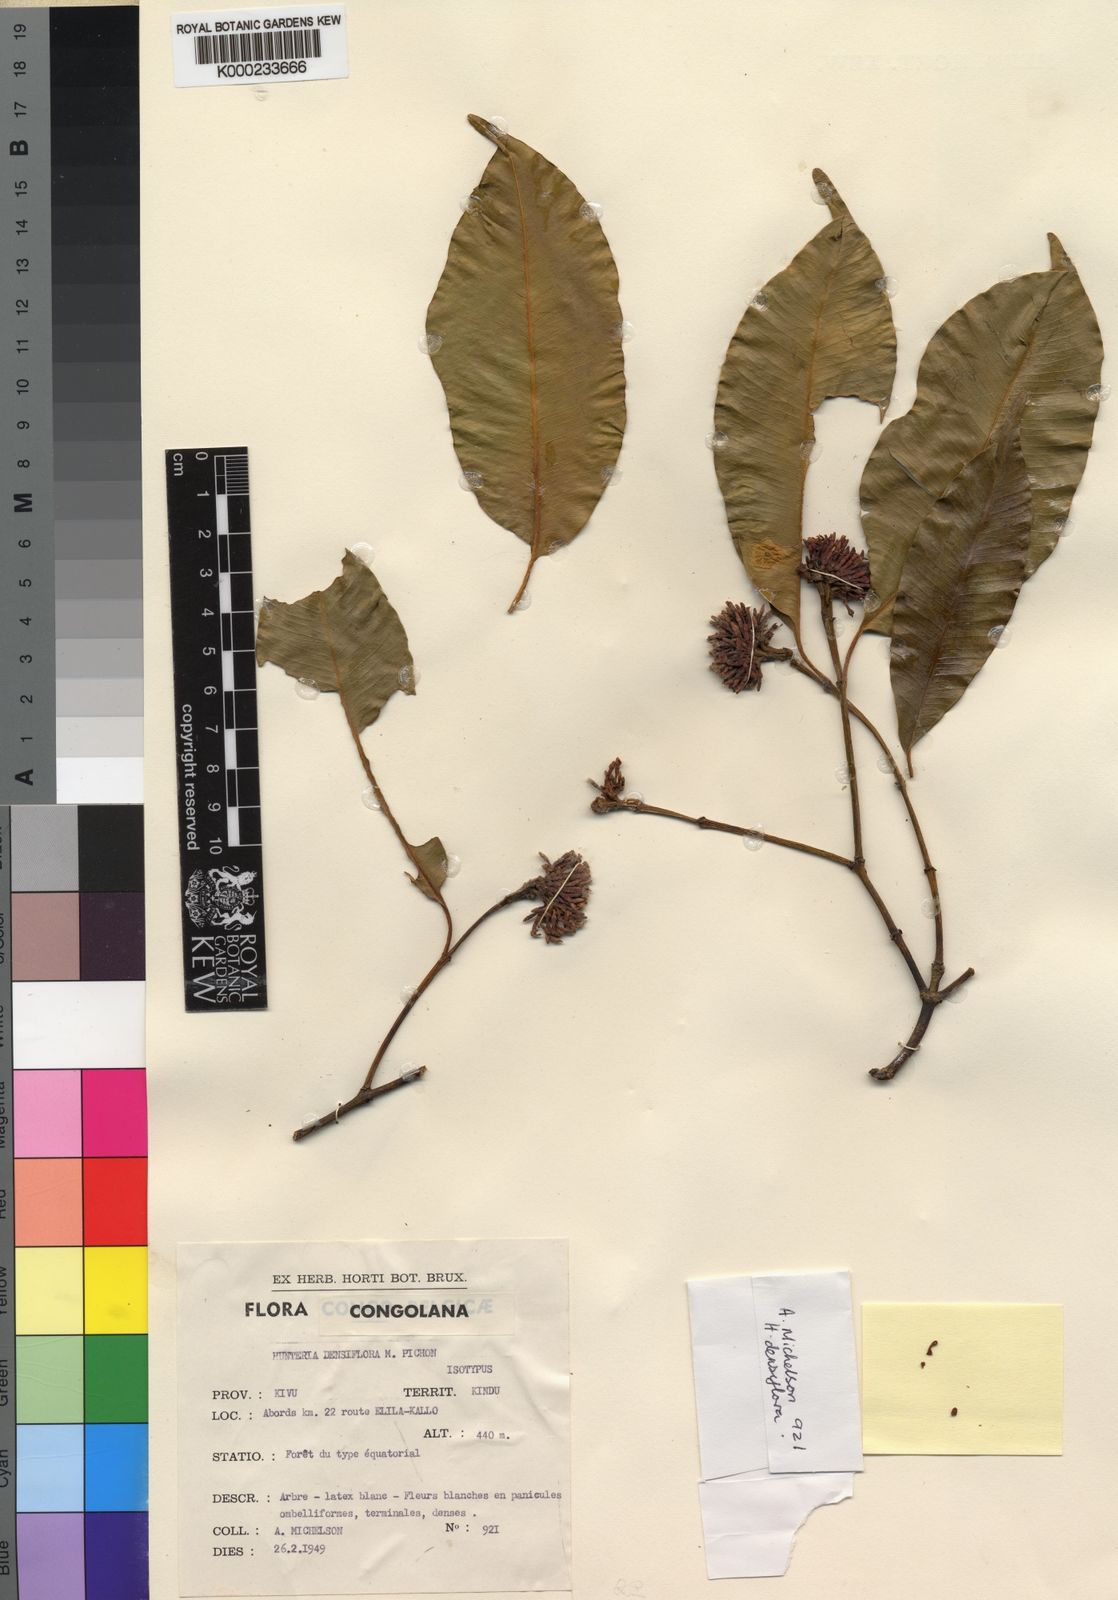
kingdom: Plantae
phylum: Tracheophyta
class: Magnoliopsida
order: Gentianales
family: Apocynaceae
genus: Hunteria
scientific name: Hunteria densiflora
